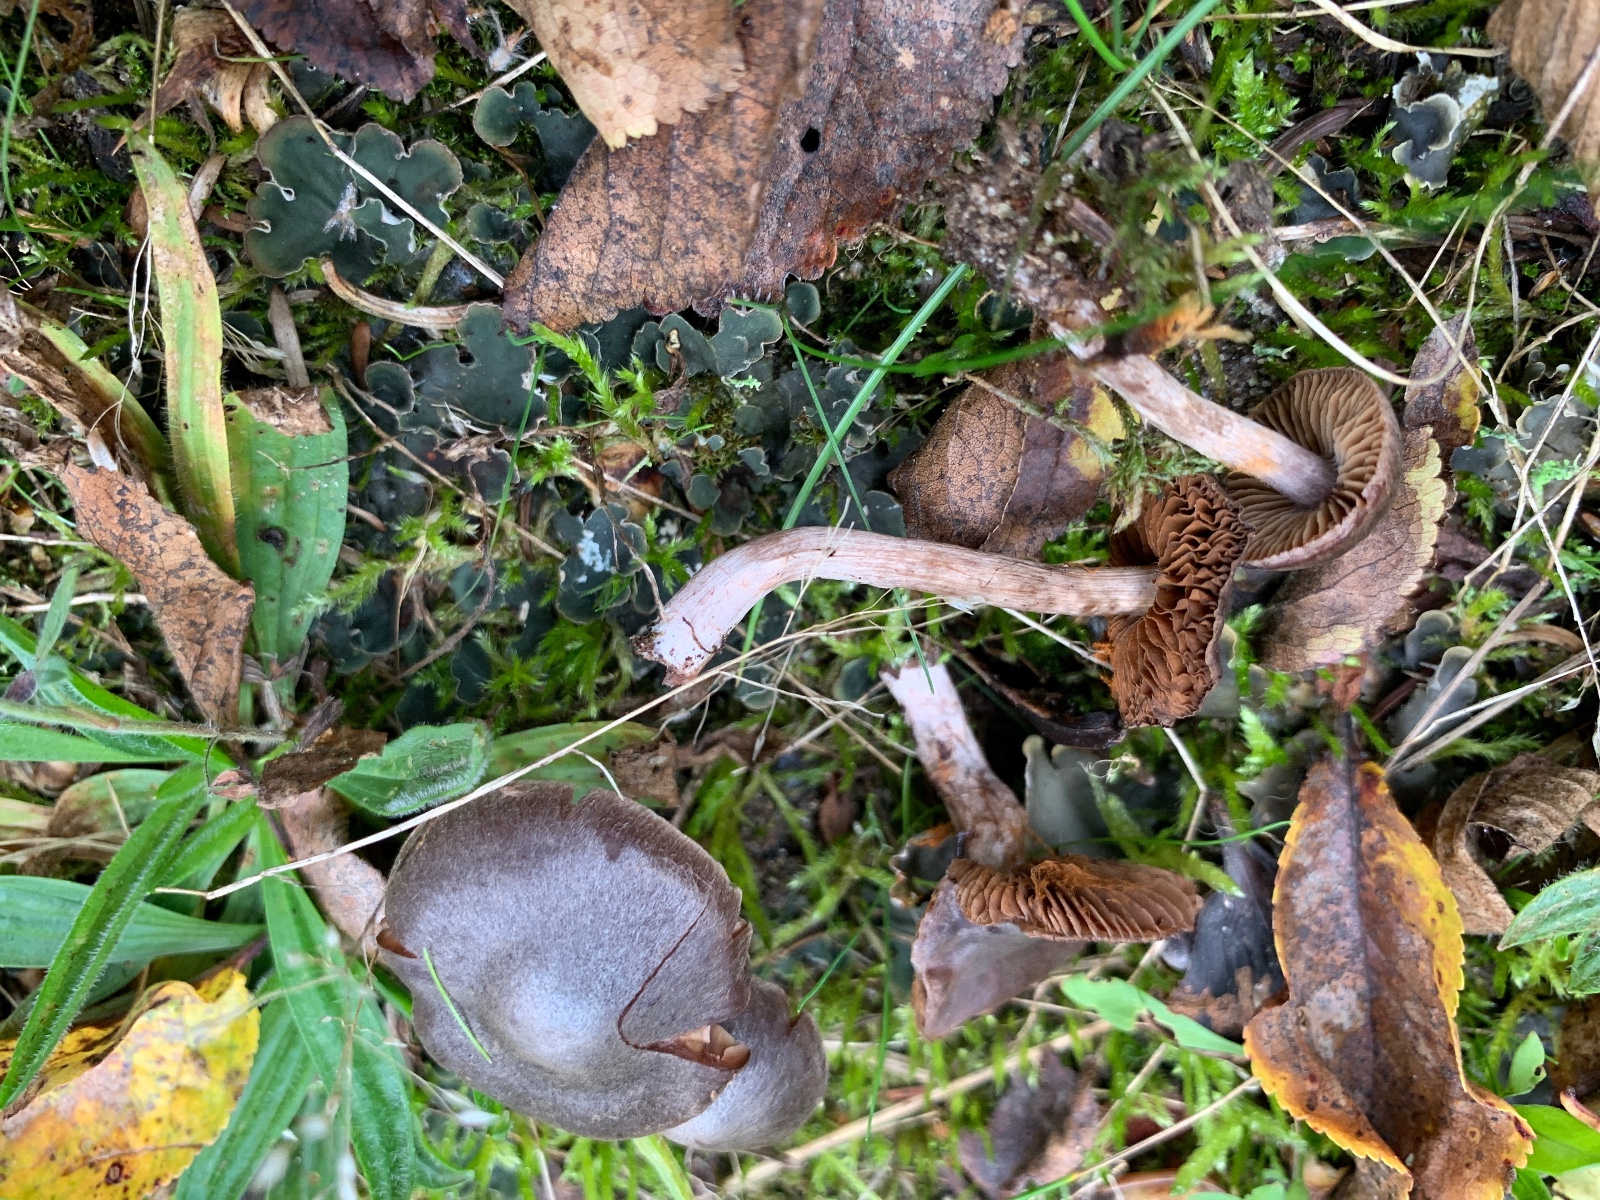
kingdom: Fungi
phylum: Basidiomycota
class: Agaricomycetes
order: Agaricales
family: Cortinariaceae
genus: Cortinarius
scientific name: Cortinarius
